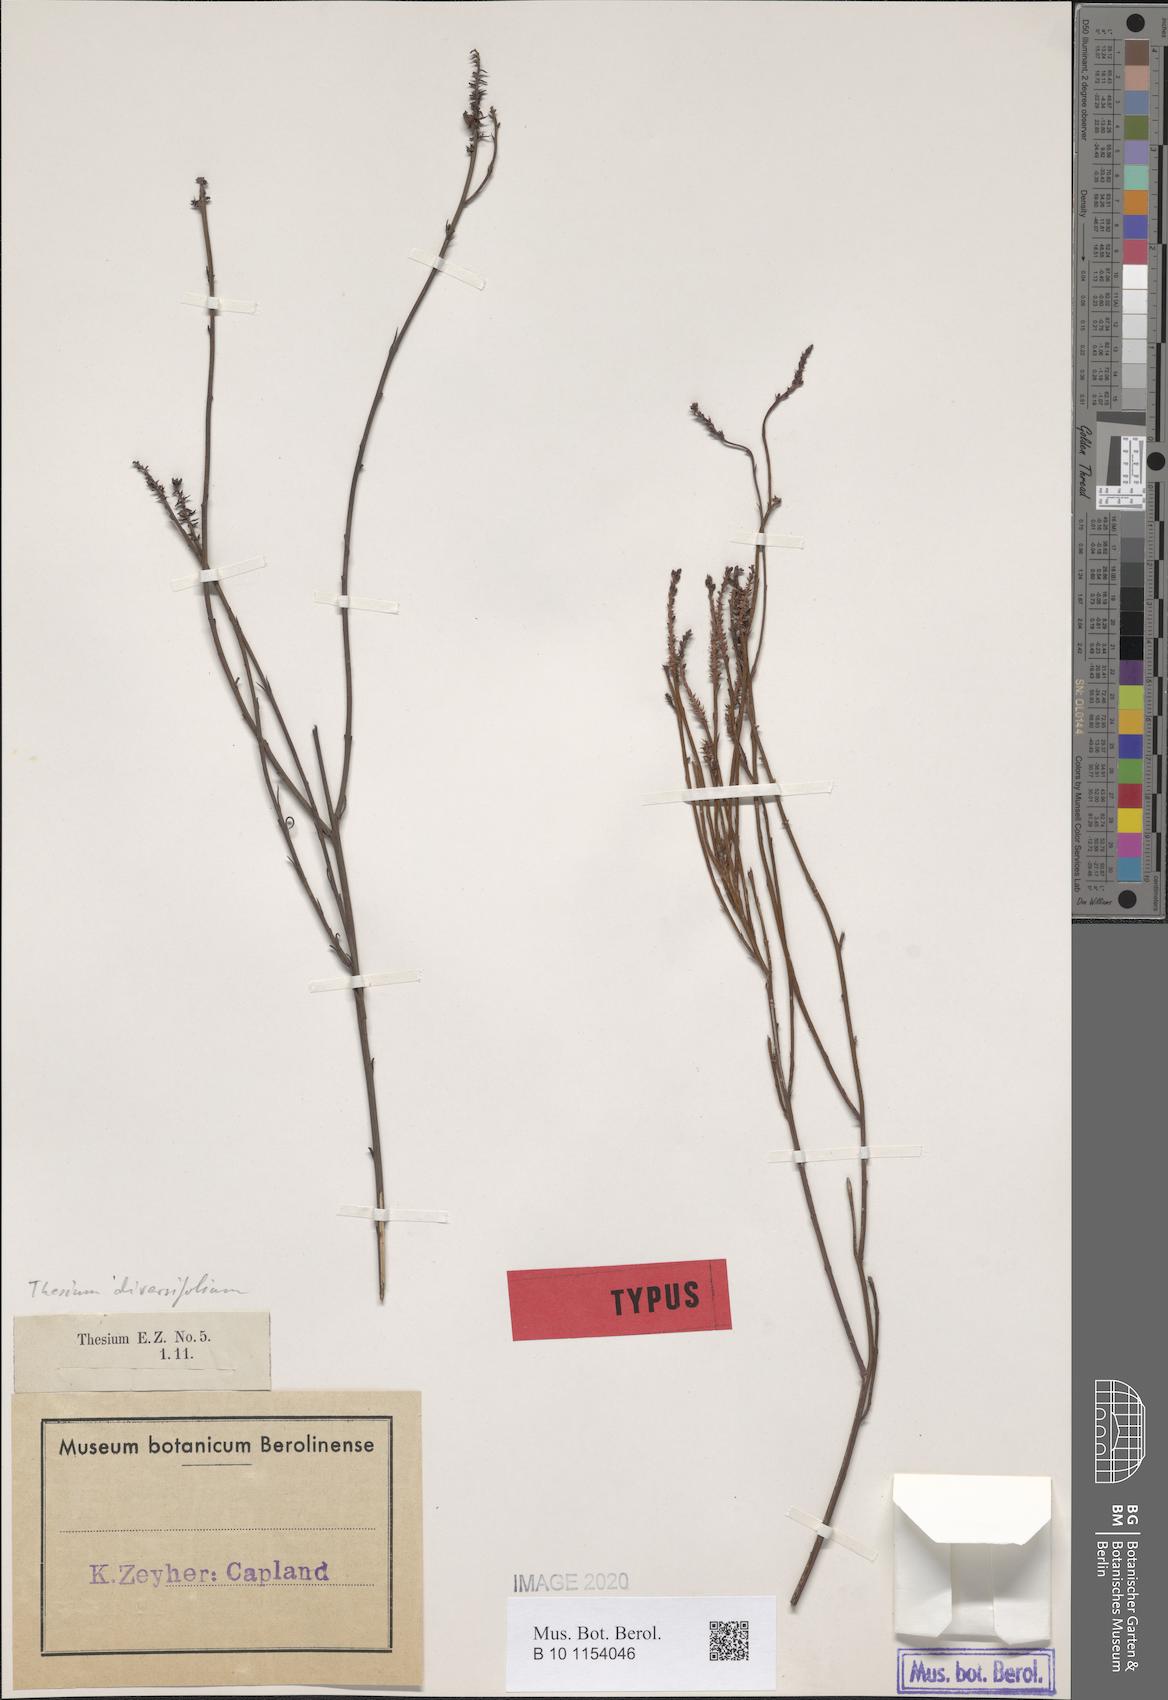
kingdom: Plantae
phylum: Tracheophyta
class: Magnoliopsida
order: Santalales
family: Thesiaceae
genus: Thesium
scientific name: Thesium diversifolium
